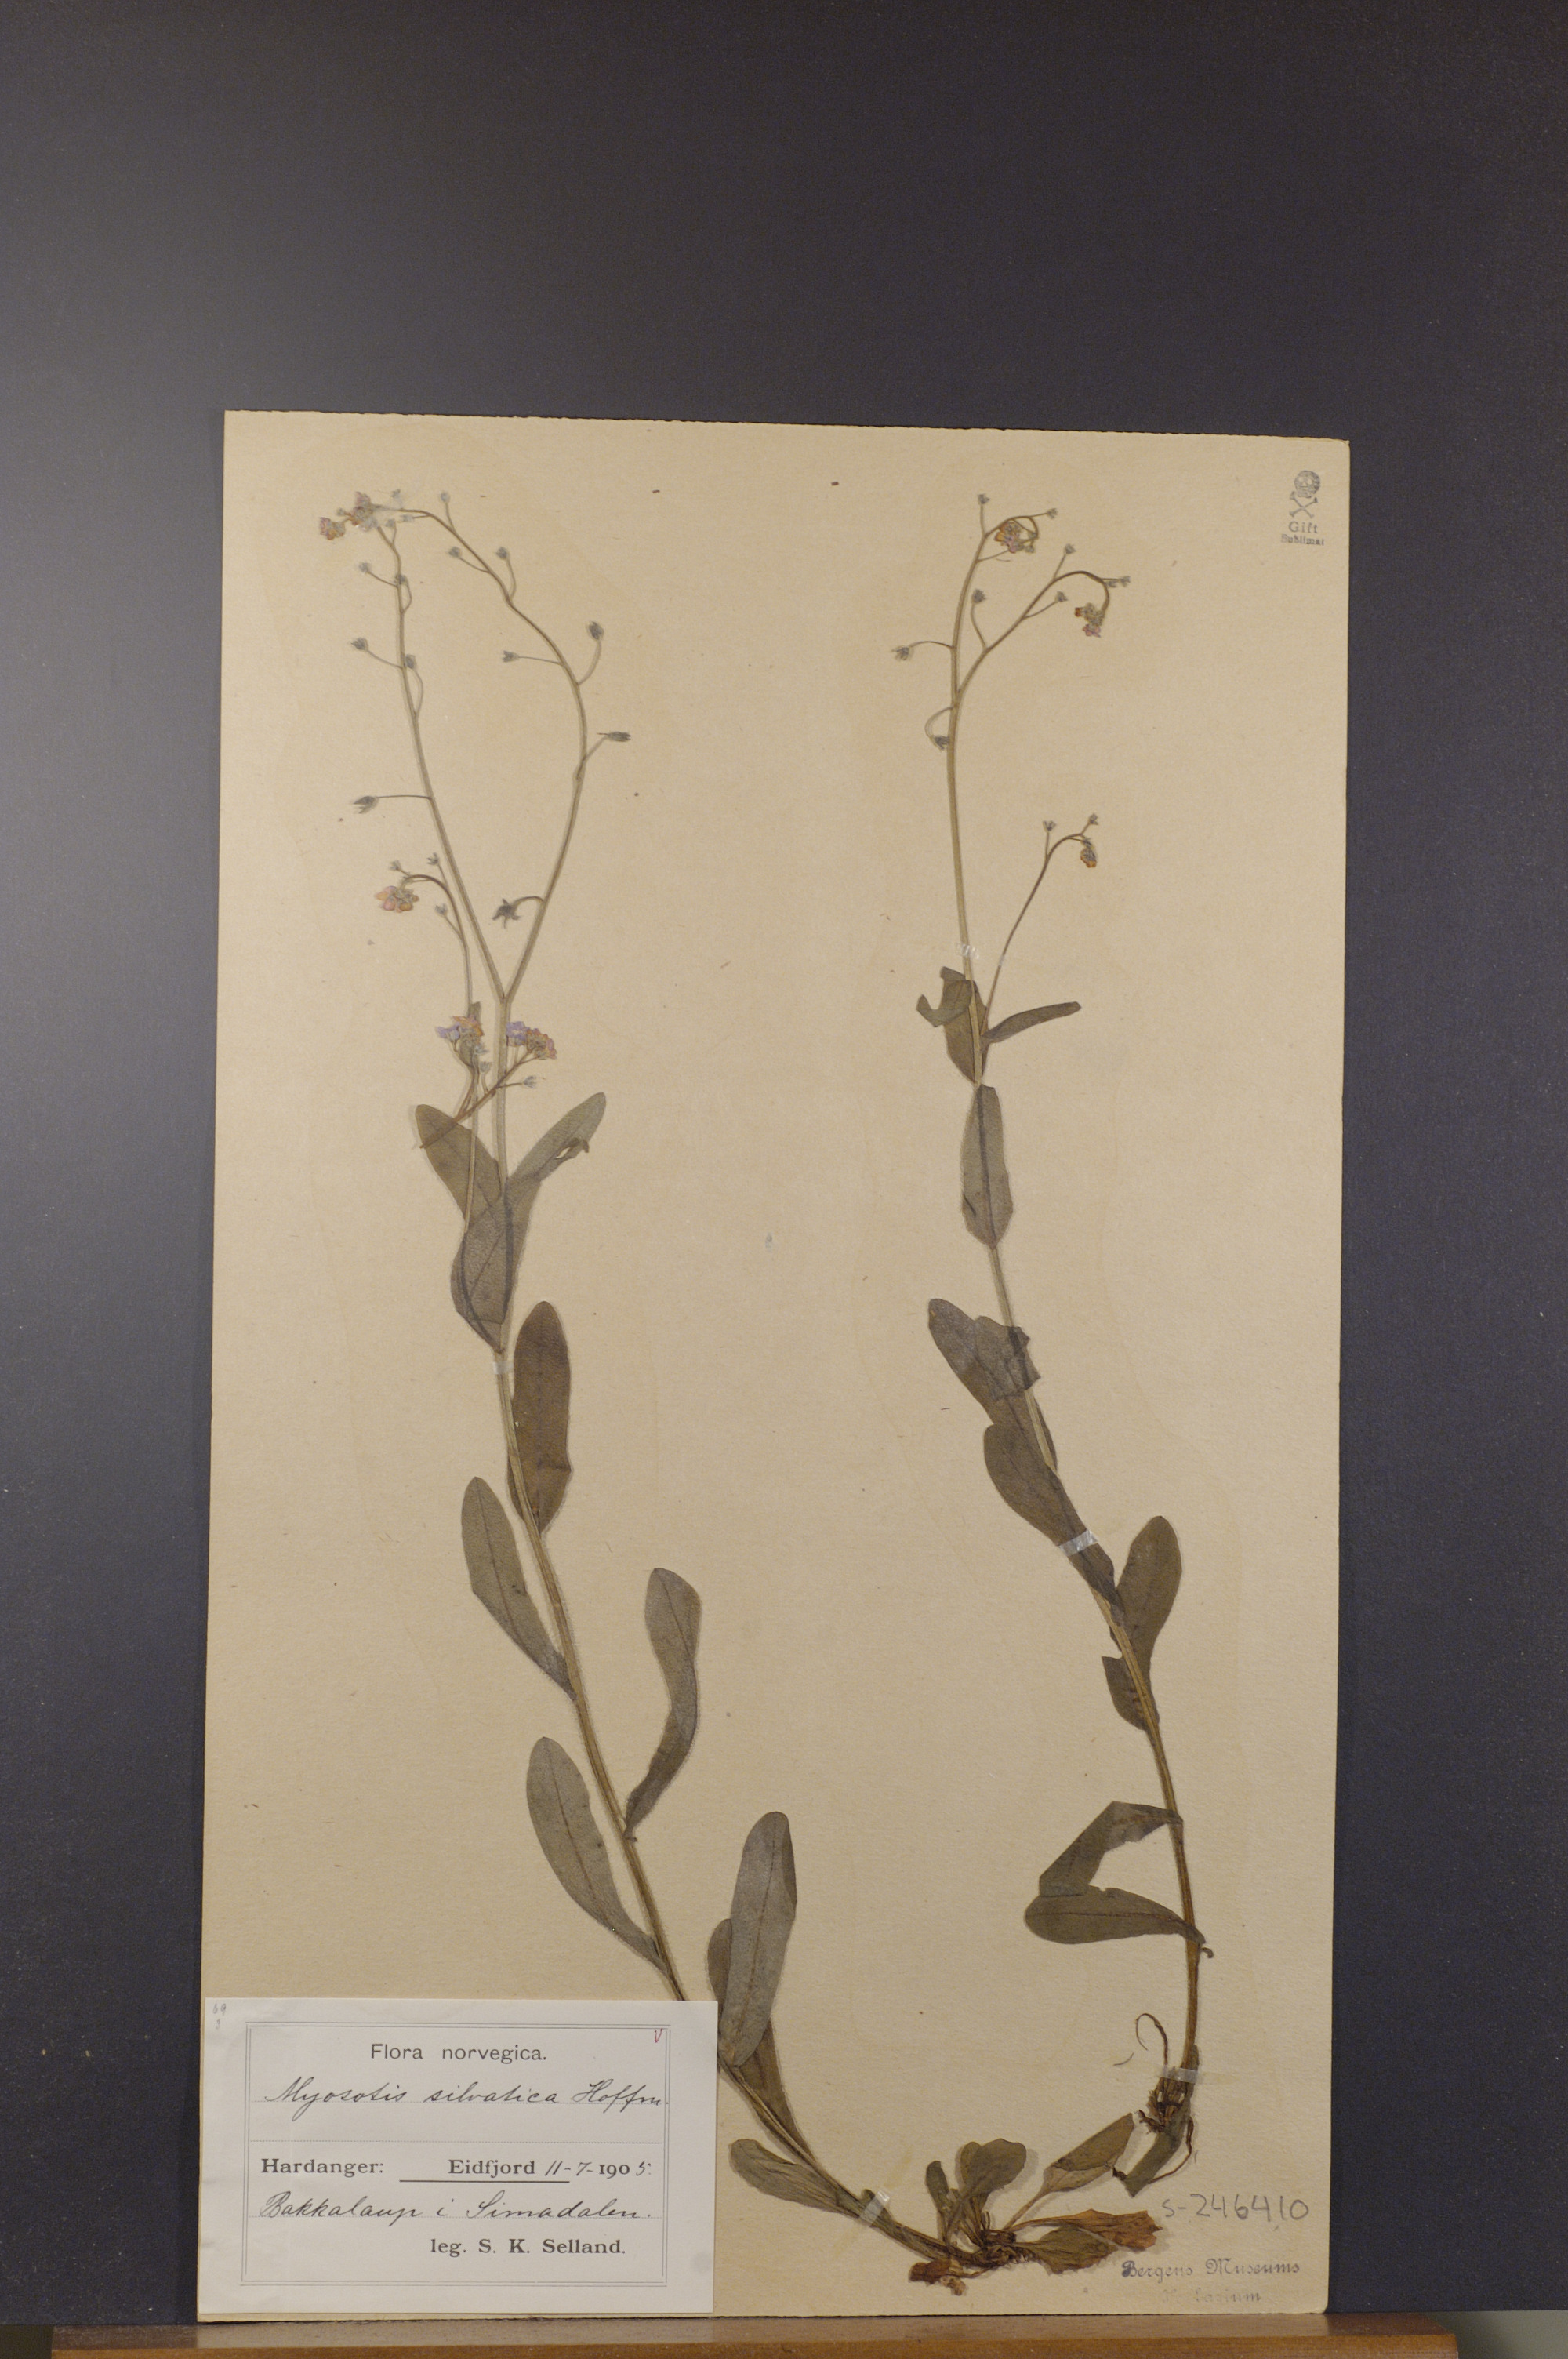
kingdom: Plantae
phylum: Tracheophyta
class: Magnoliopsida
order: Boraginales
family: Boraginaceae
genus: Myosotis
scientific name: Myosotis decumbens
